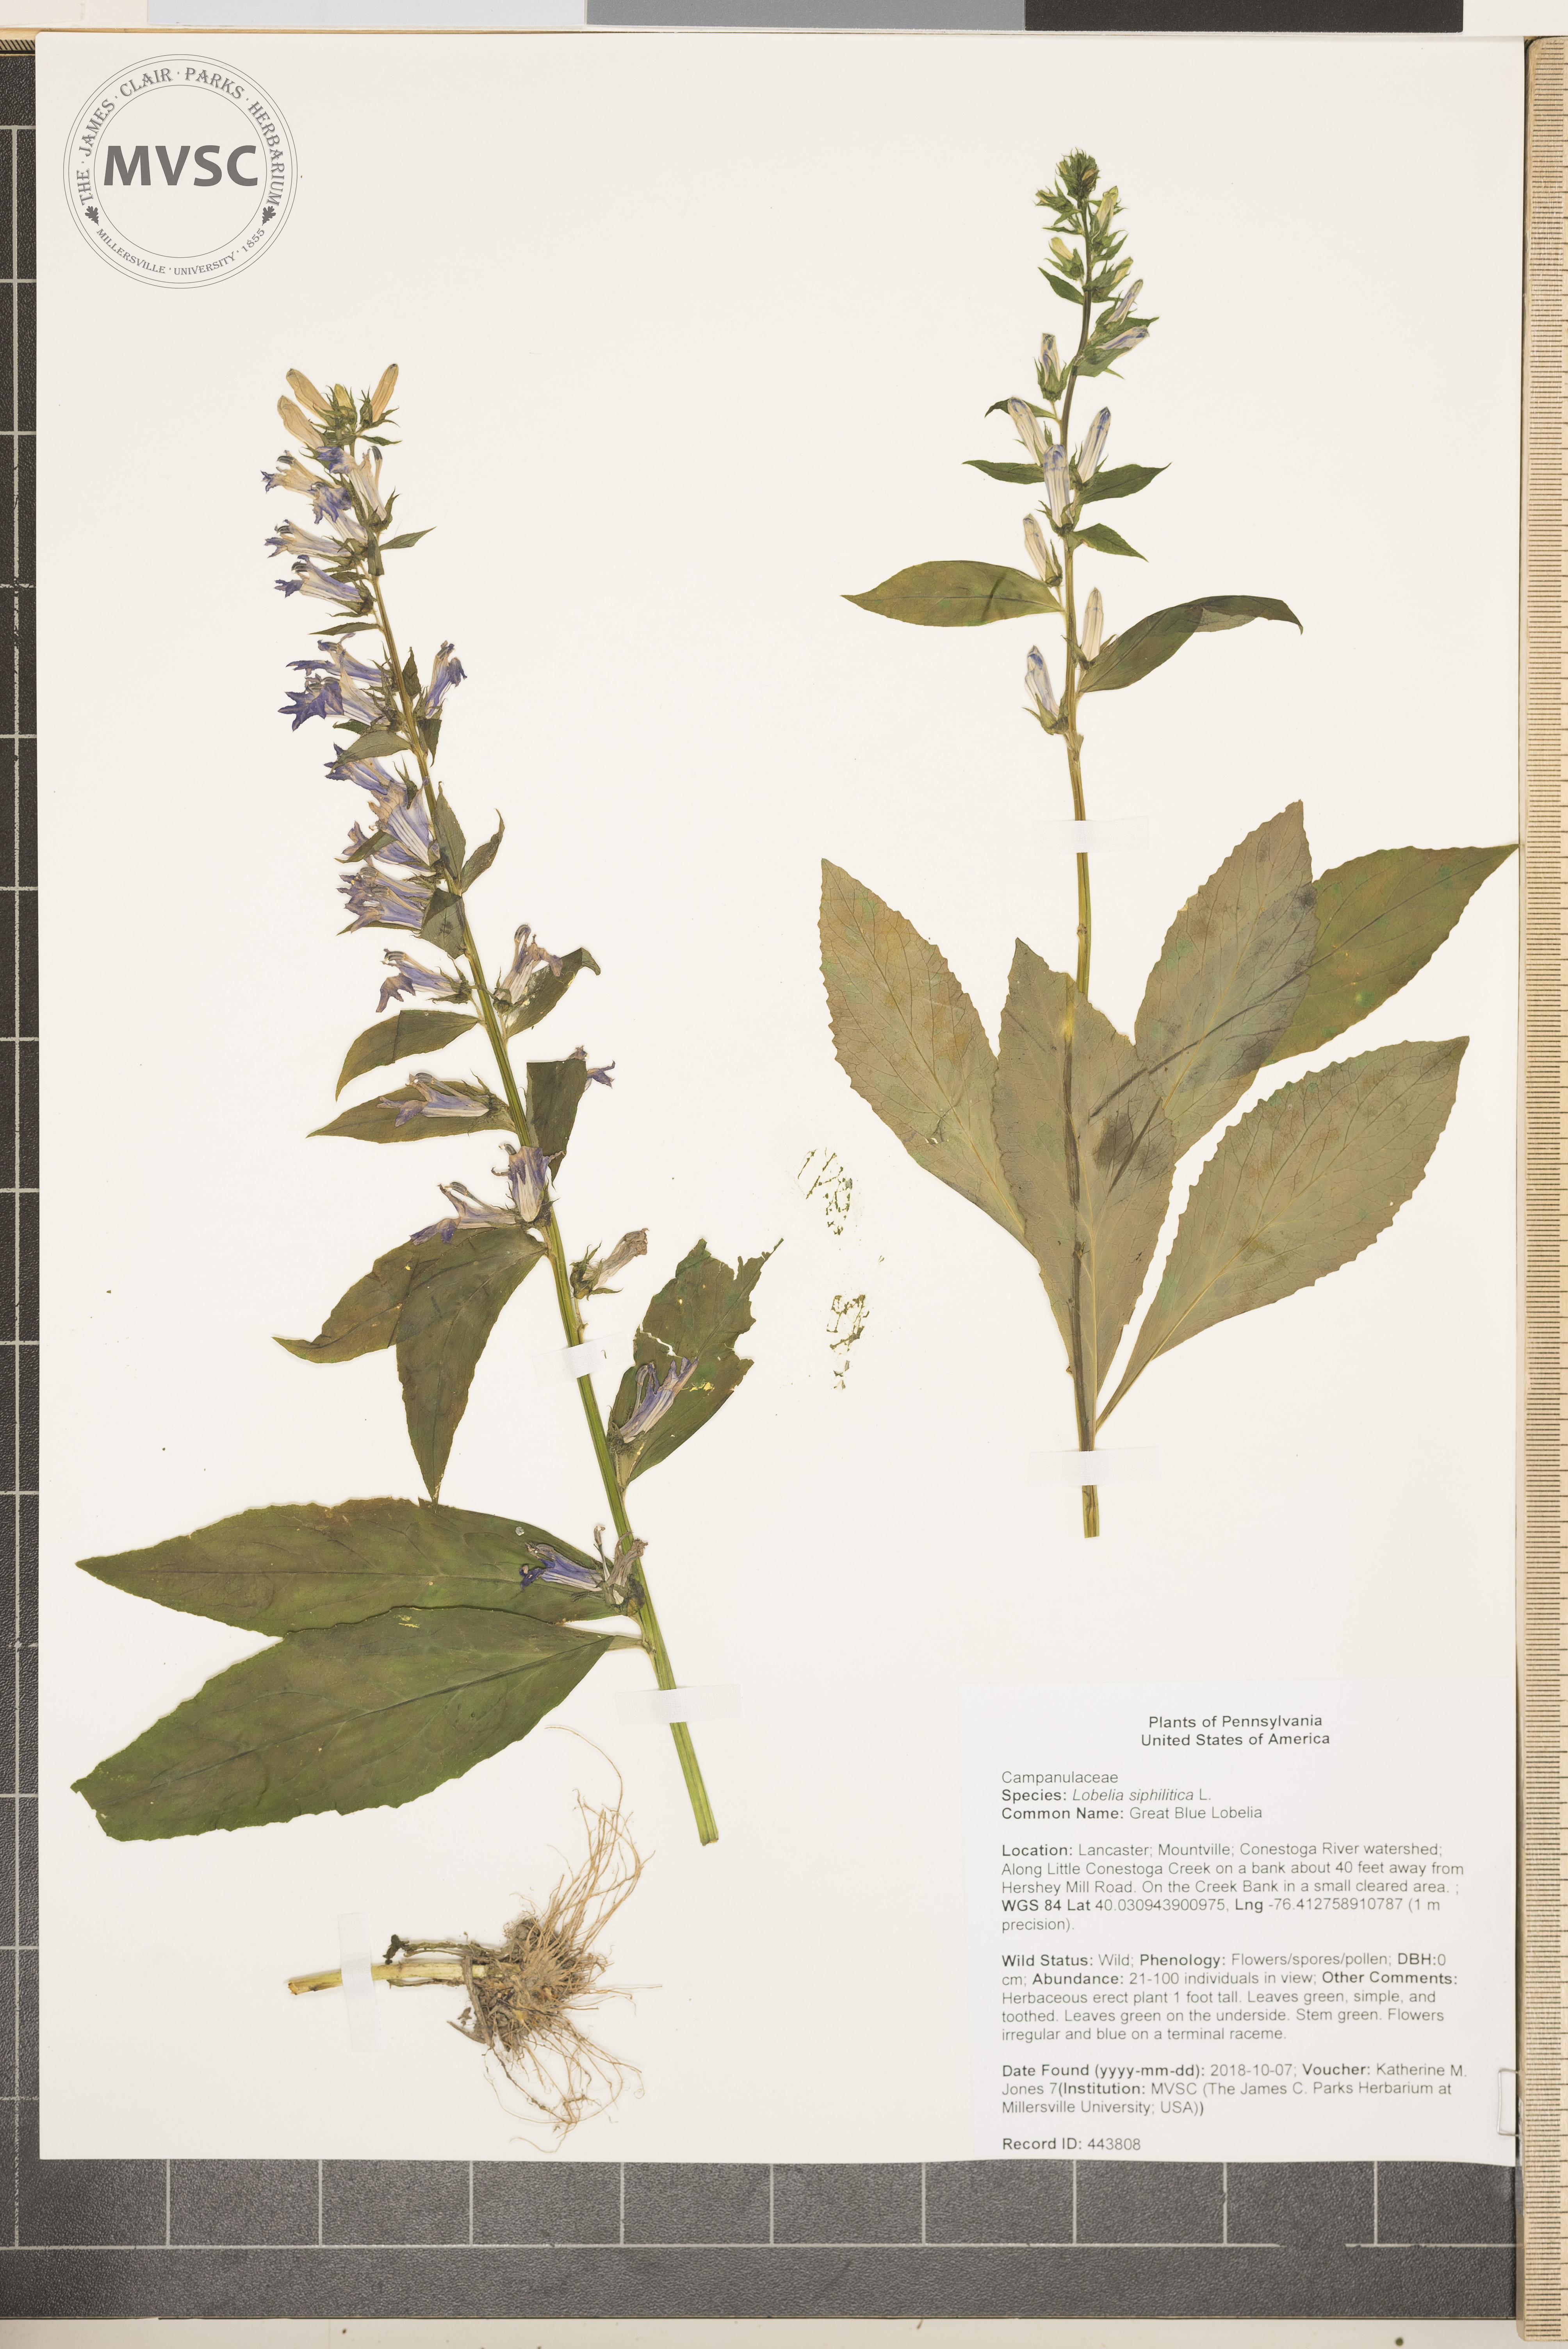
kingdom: Plantae
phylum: Tracheophyta
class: Magnoliopsida
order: Asterales
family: Campanulaceae
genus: Lobelia
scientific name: Lobelia siphilitica
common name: Great Blue Lobelia
